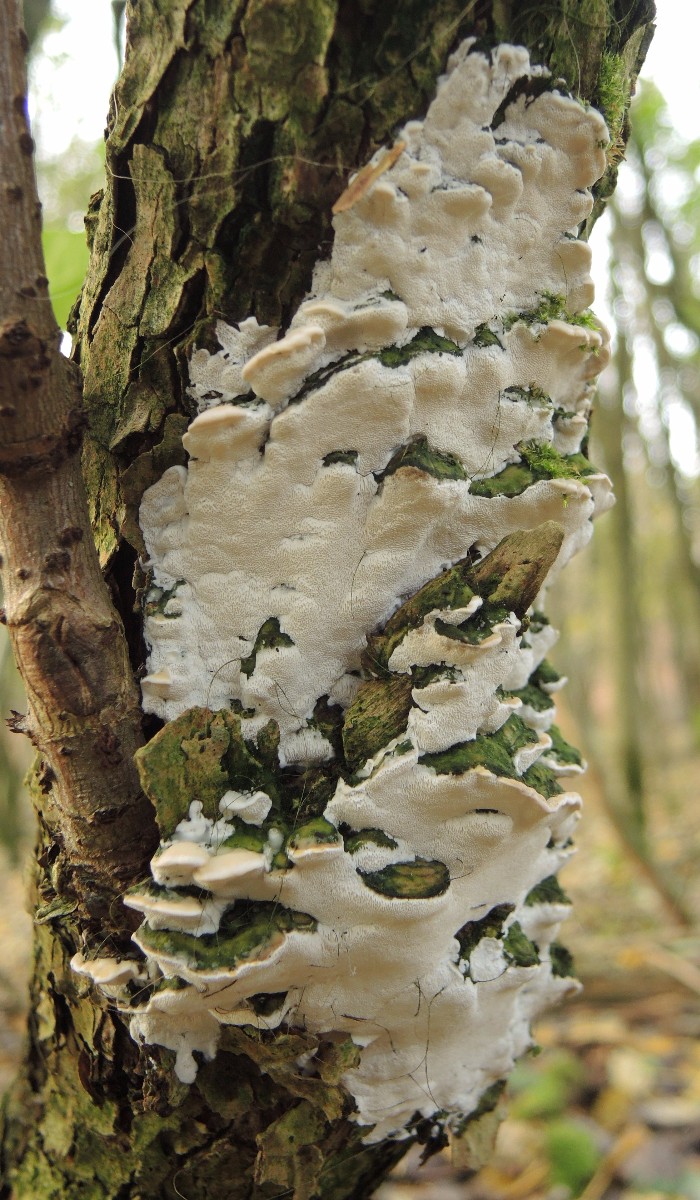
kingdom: Fungi
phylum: Basidiomycota
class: Agaricomycetes
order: Hymenochaetales
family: Oxyporaceae
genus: Oxyporus
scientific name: Oxyporus populinus
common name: sammenvokset trylleporesvamp
